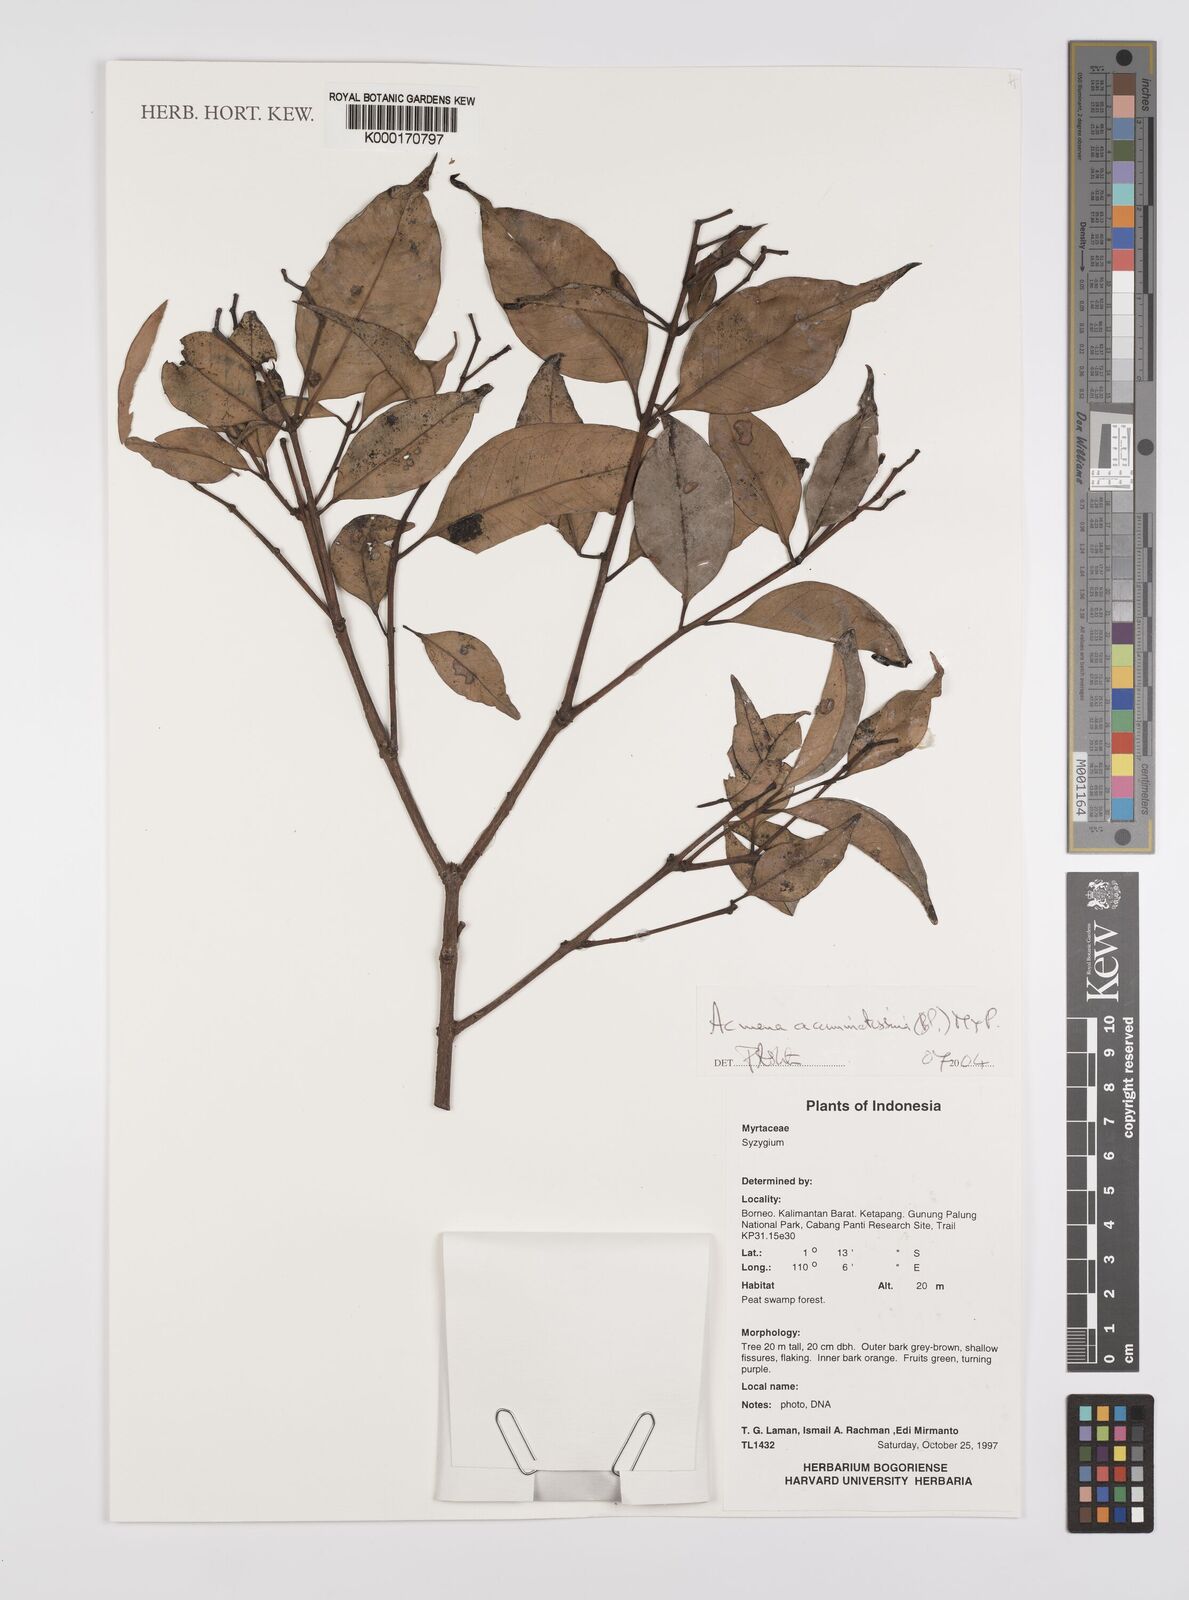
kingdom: Plantae
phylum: Tracheophyta
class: Magnoliopsida
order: Myrtales
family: Myrtaceae
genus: Syzygium
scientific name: Syzygium acuminatissimum
